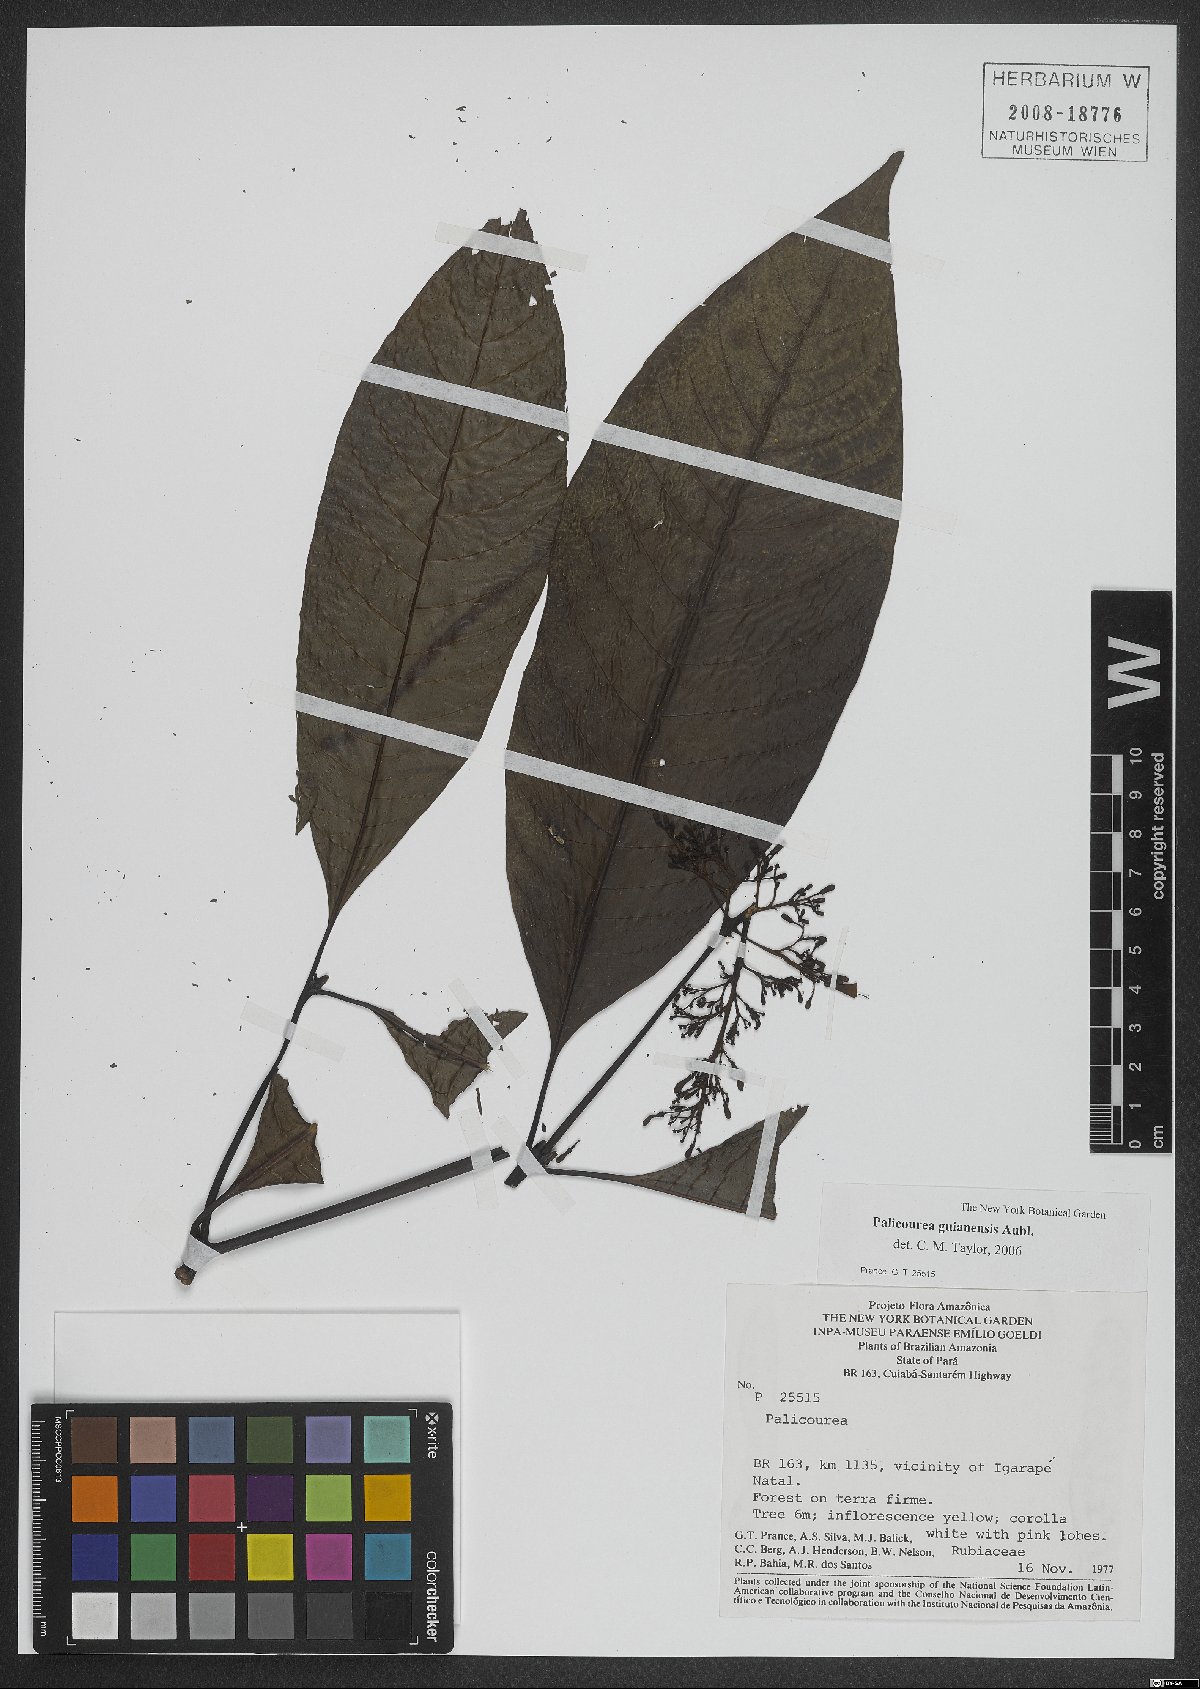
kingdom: Plantae
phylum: Tracheophyta
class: Magnoliopsida
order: Gentianales
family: Rubiaceae
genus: Palicourea
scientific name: Palicourea guianensis
